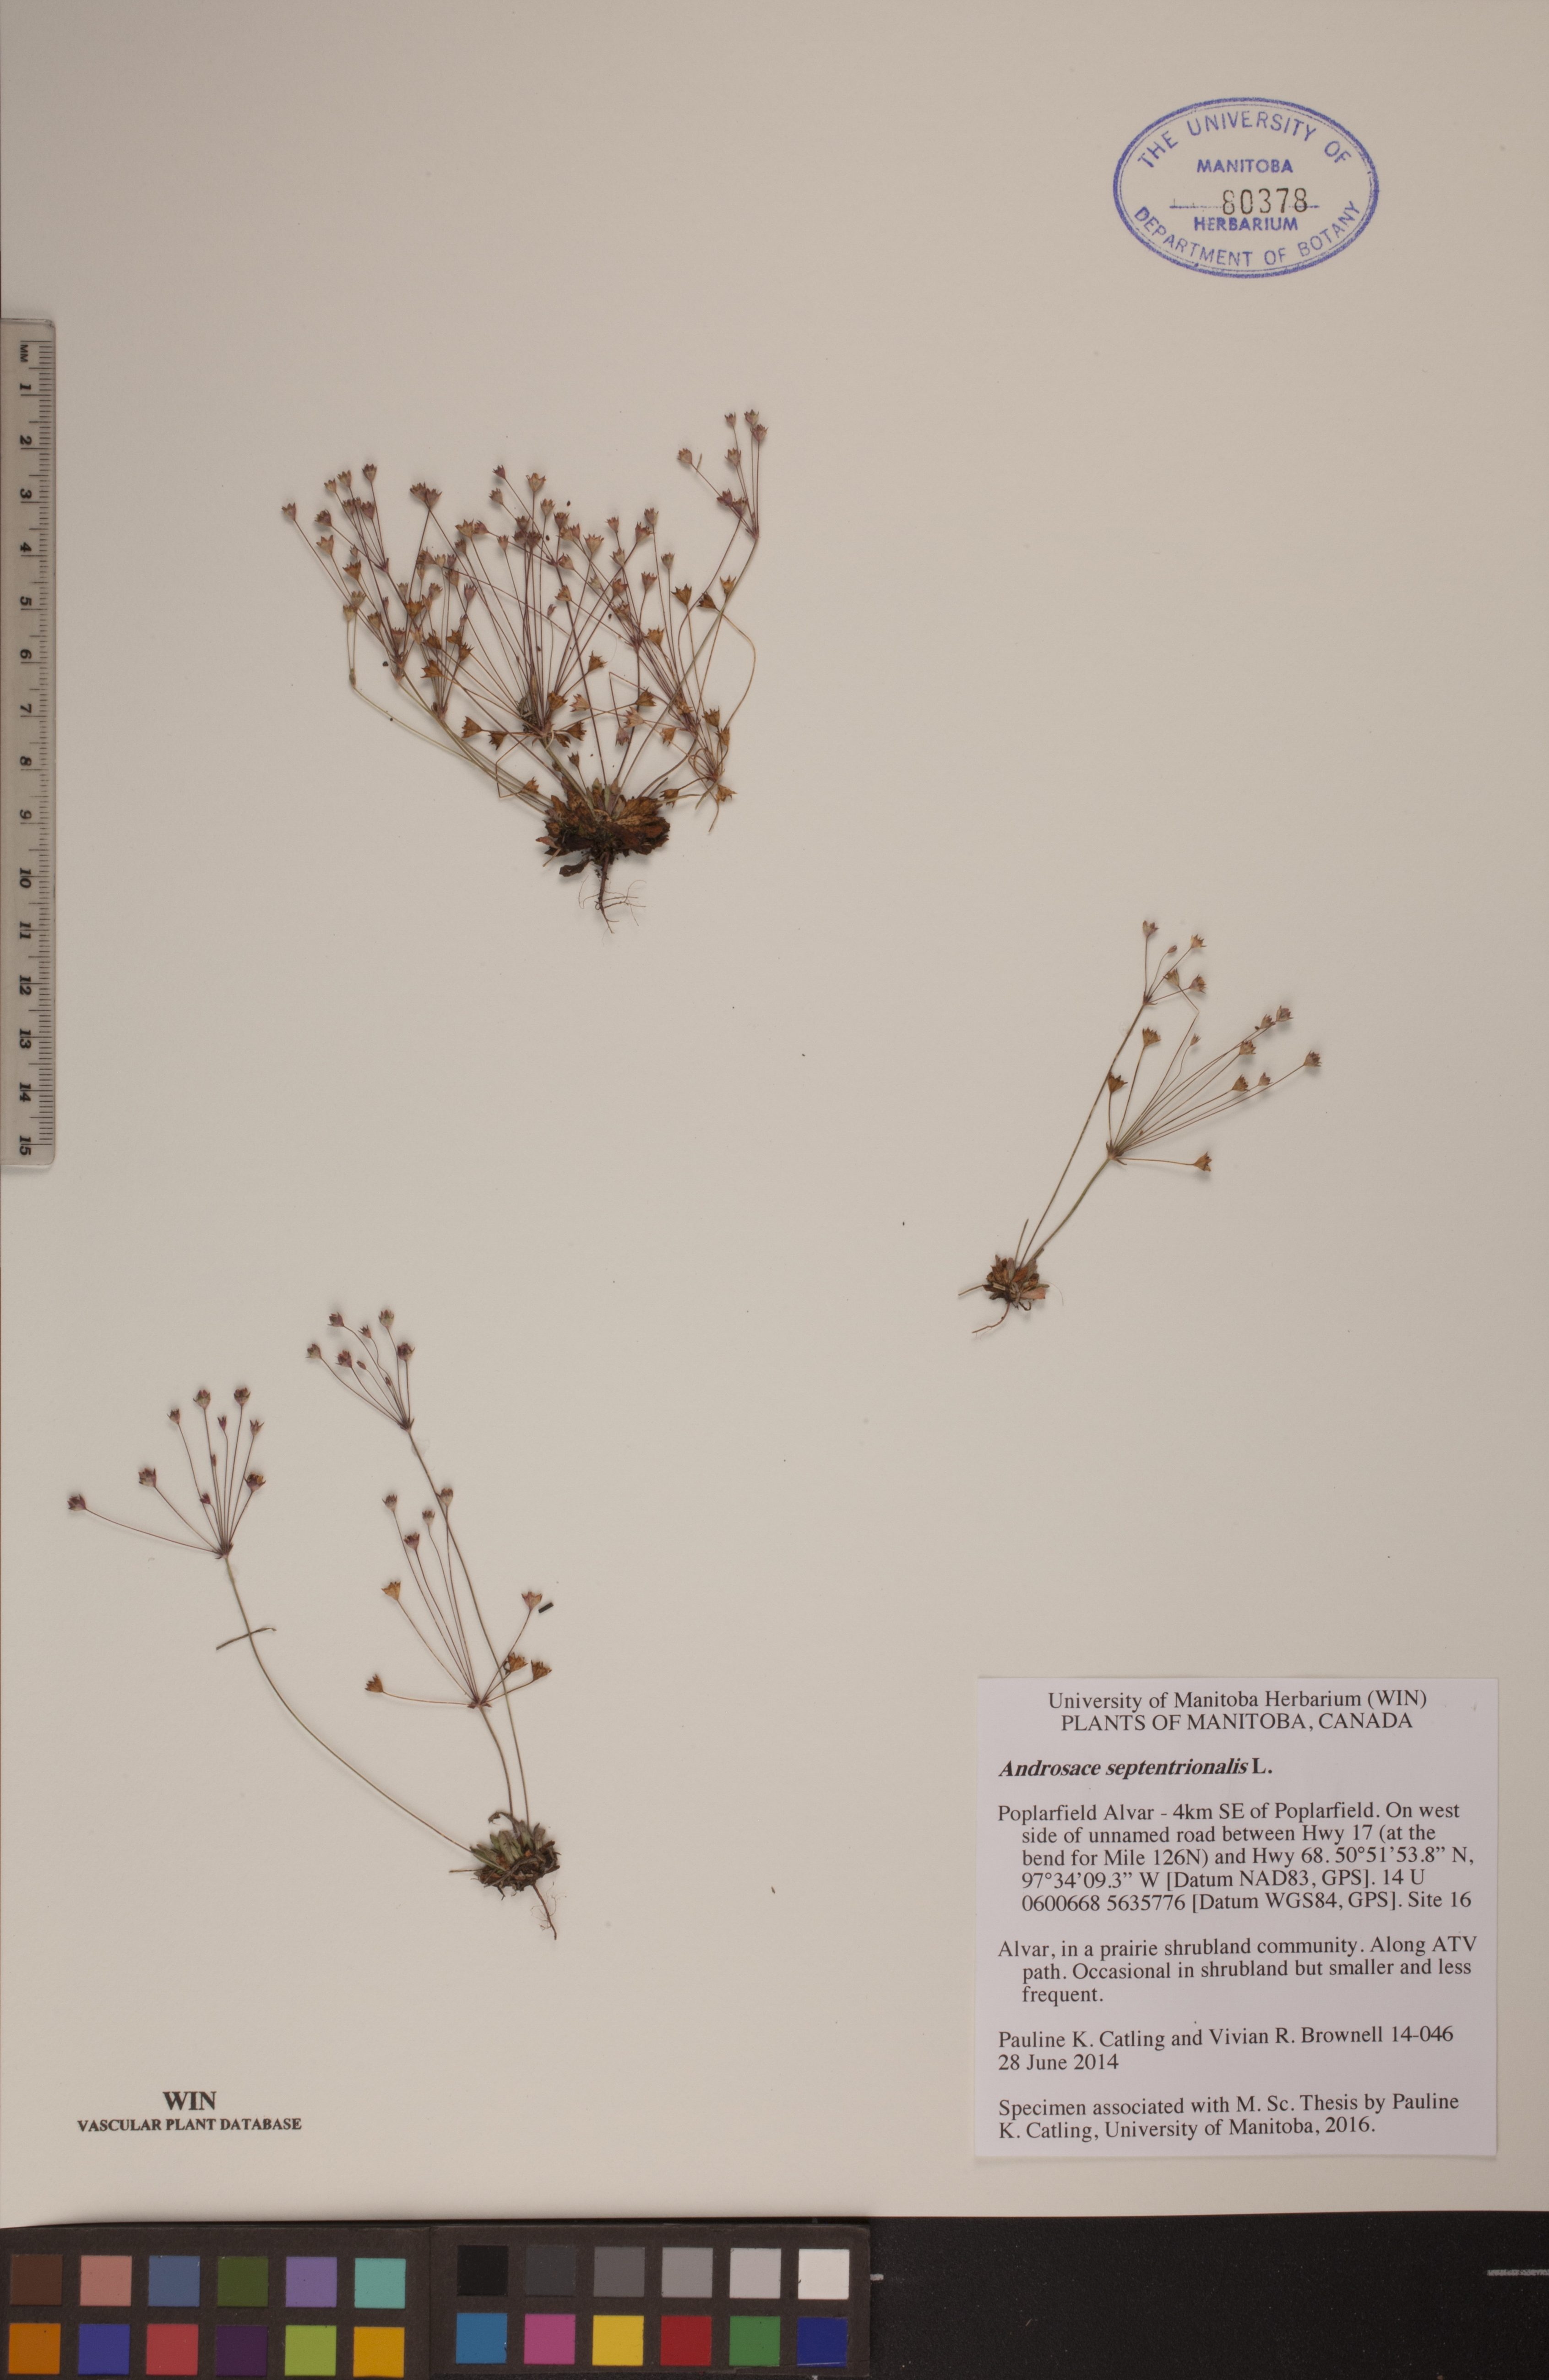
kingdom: Plantae
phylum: Tracheophyta
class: Magnoliopsida
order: Ericales
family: Primulaceae
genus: Androsace
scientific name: Androsace septentrionalis
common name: Hairy northern fairy-candelabra
